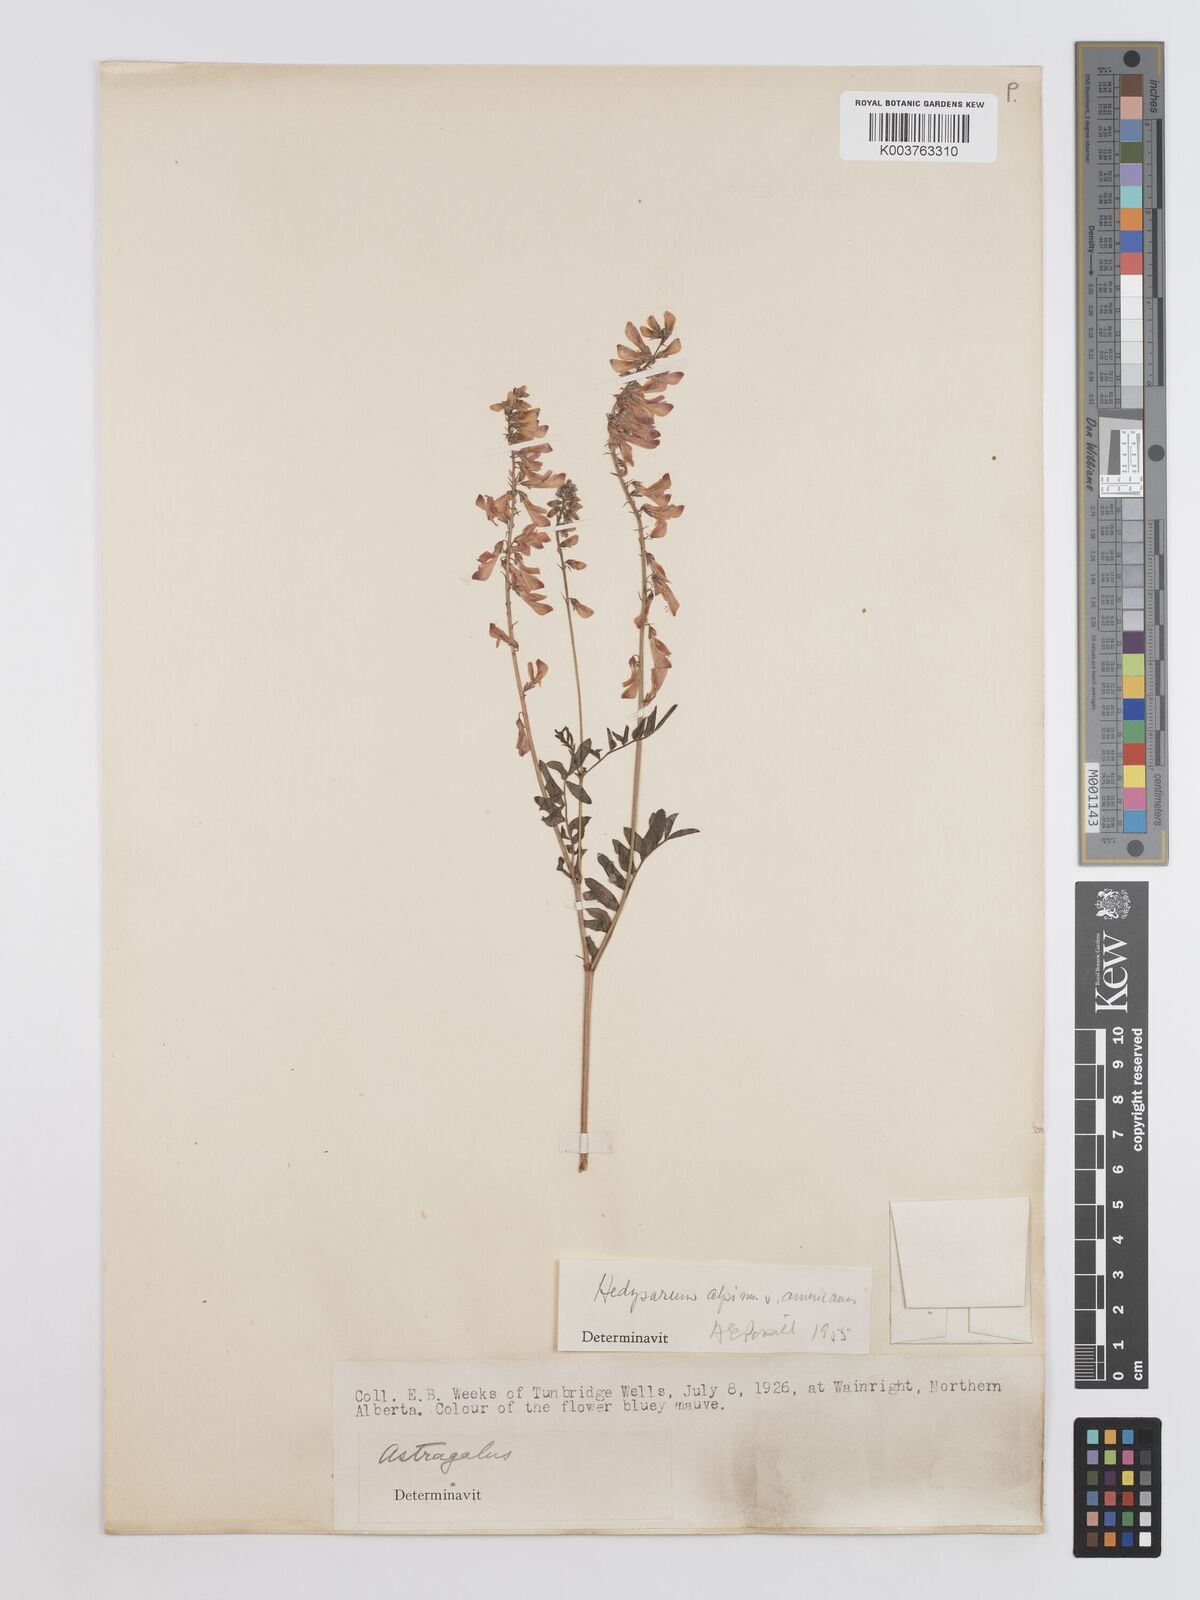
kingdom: Plantae
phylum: Tracheophyta
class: Magnoliopsida
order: Fabales
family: Fabaceae
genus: Hedysarum
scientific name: Hedysarum alpinum
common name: Alpine sweet-vetch
